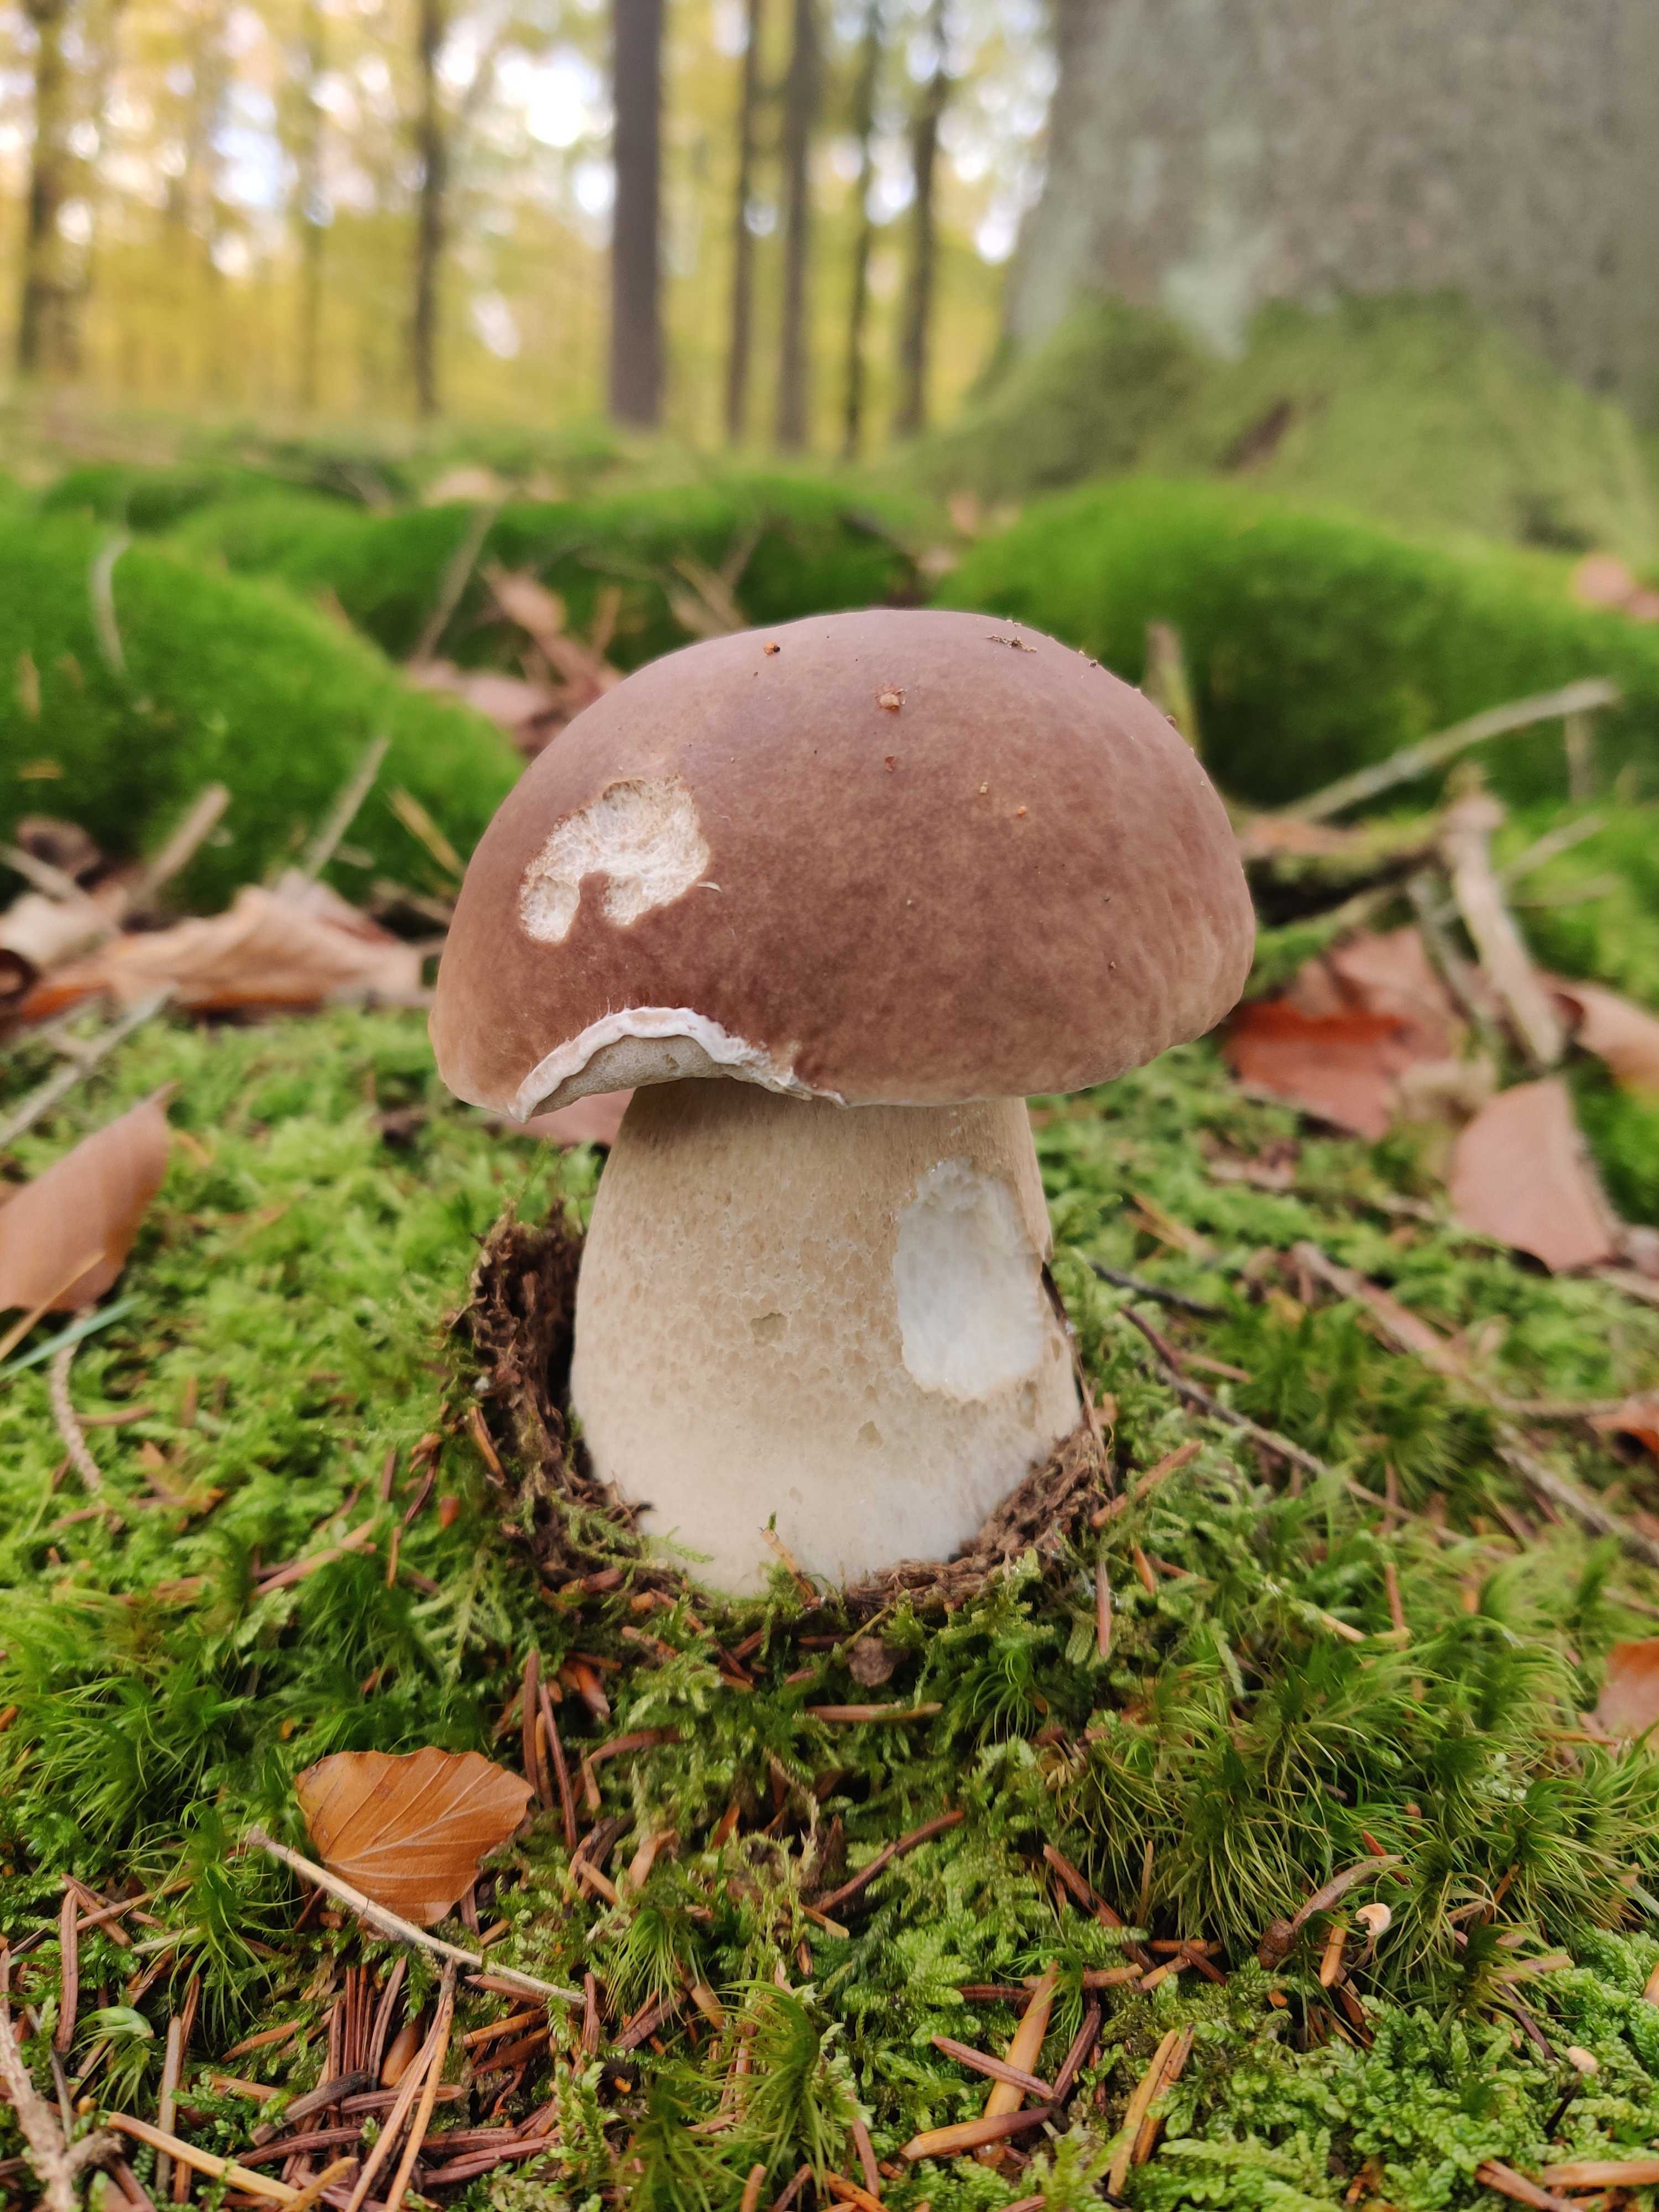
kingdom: Fungi
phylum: Basidiomycota
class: Agaricomycetes
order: Boletales
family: Boletaceae
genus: Boletus
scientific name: Boletus edulis
